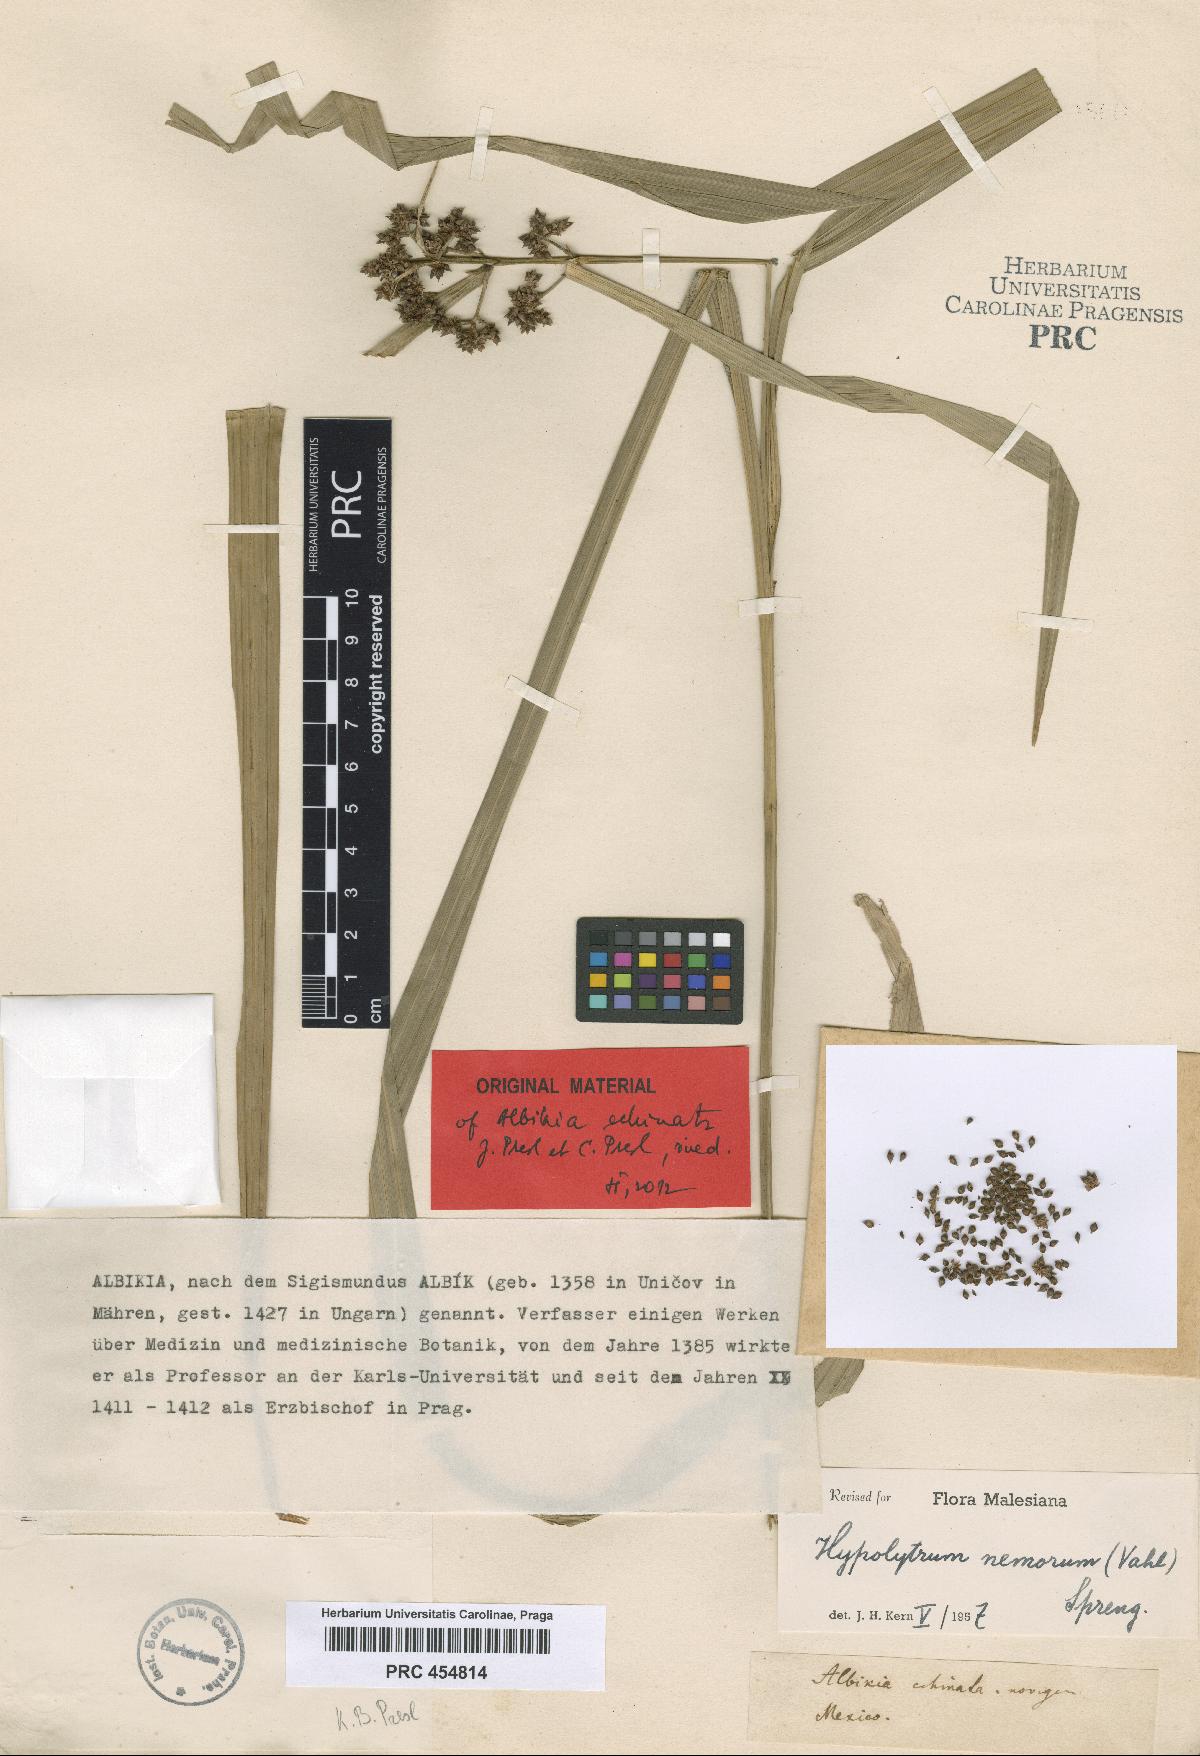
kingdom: Plantae
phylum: Tracheophyta
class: Liliopsida
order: Poales
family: Cyperaceae
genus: Hypolytrum
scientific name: Hypolytrum
